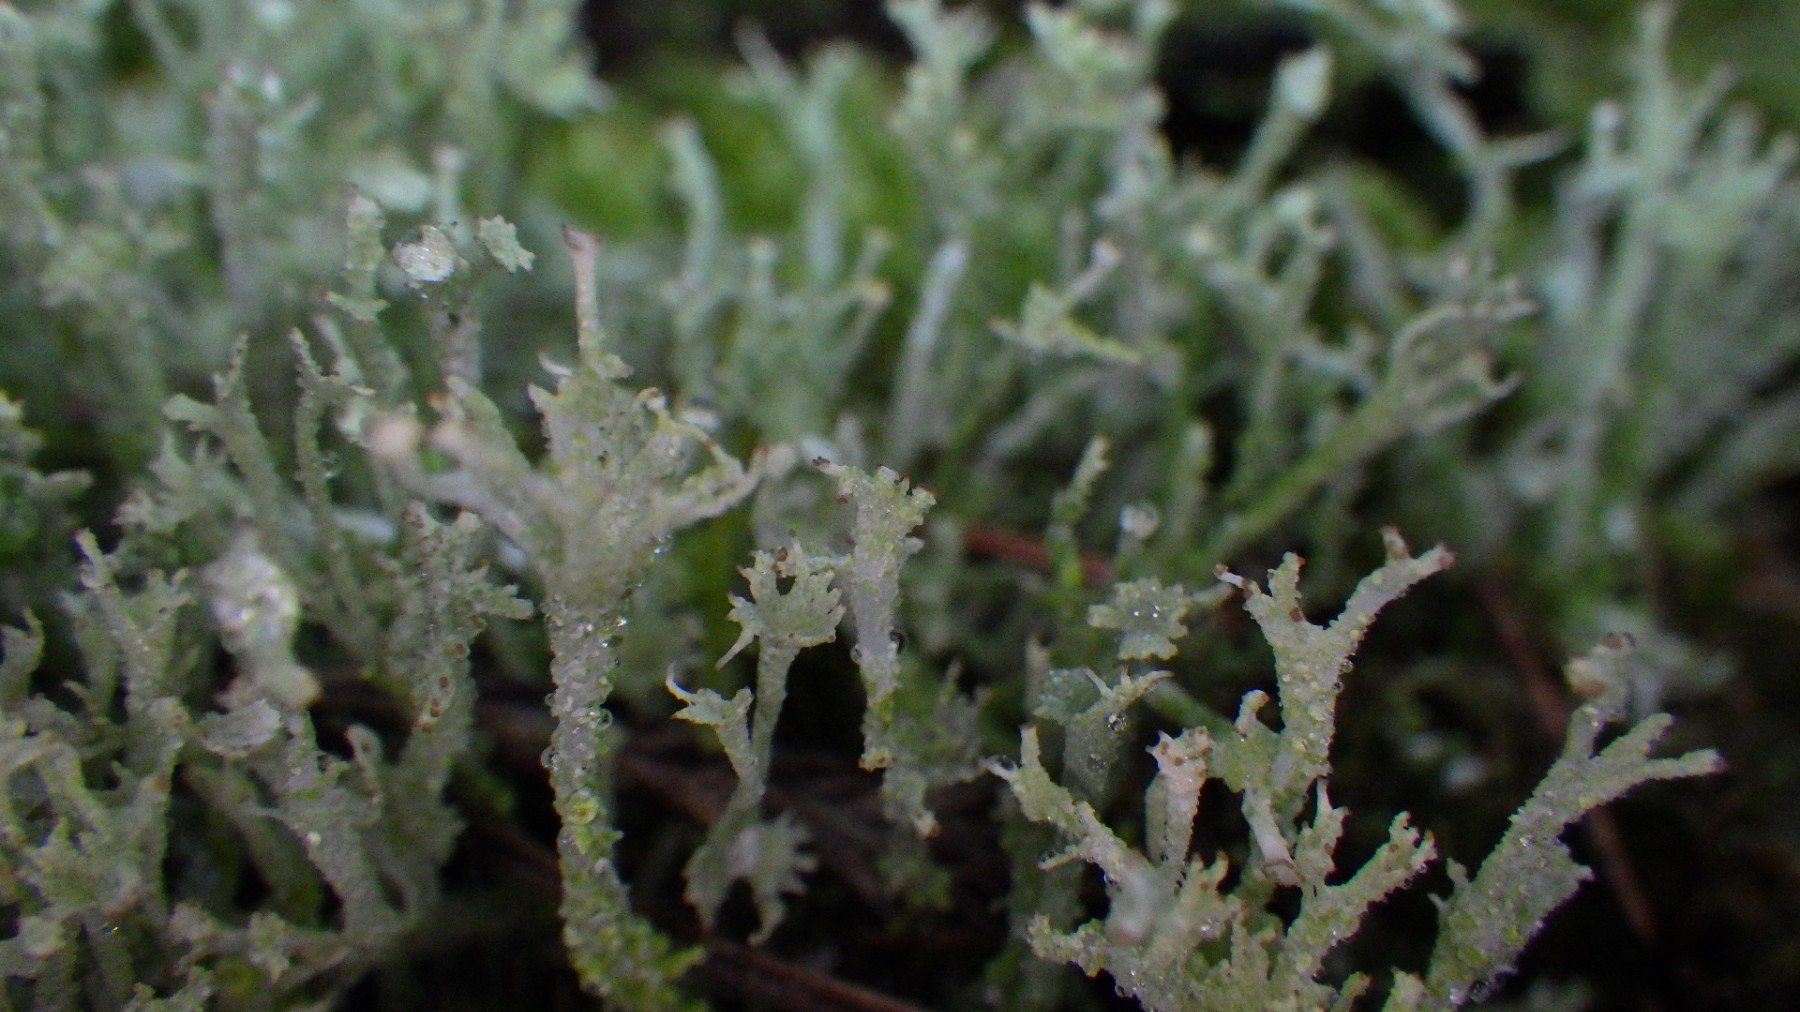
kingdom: Fungi
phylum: Ascomycota
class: Lecanoromycetes
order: Lecanorales
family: Cladoniaceae
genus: Cladonia
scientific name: Cladonia ramulosa
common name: kliddet bægerlav
